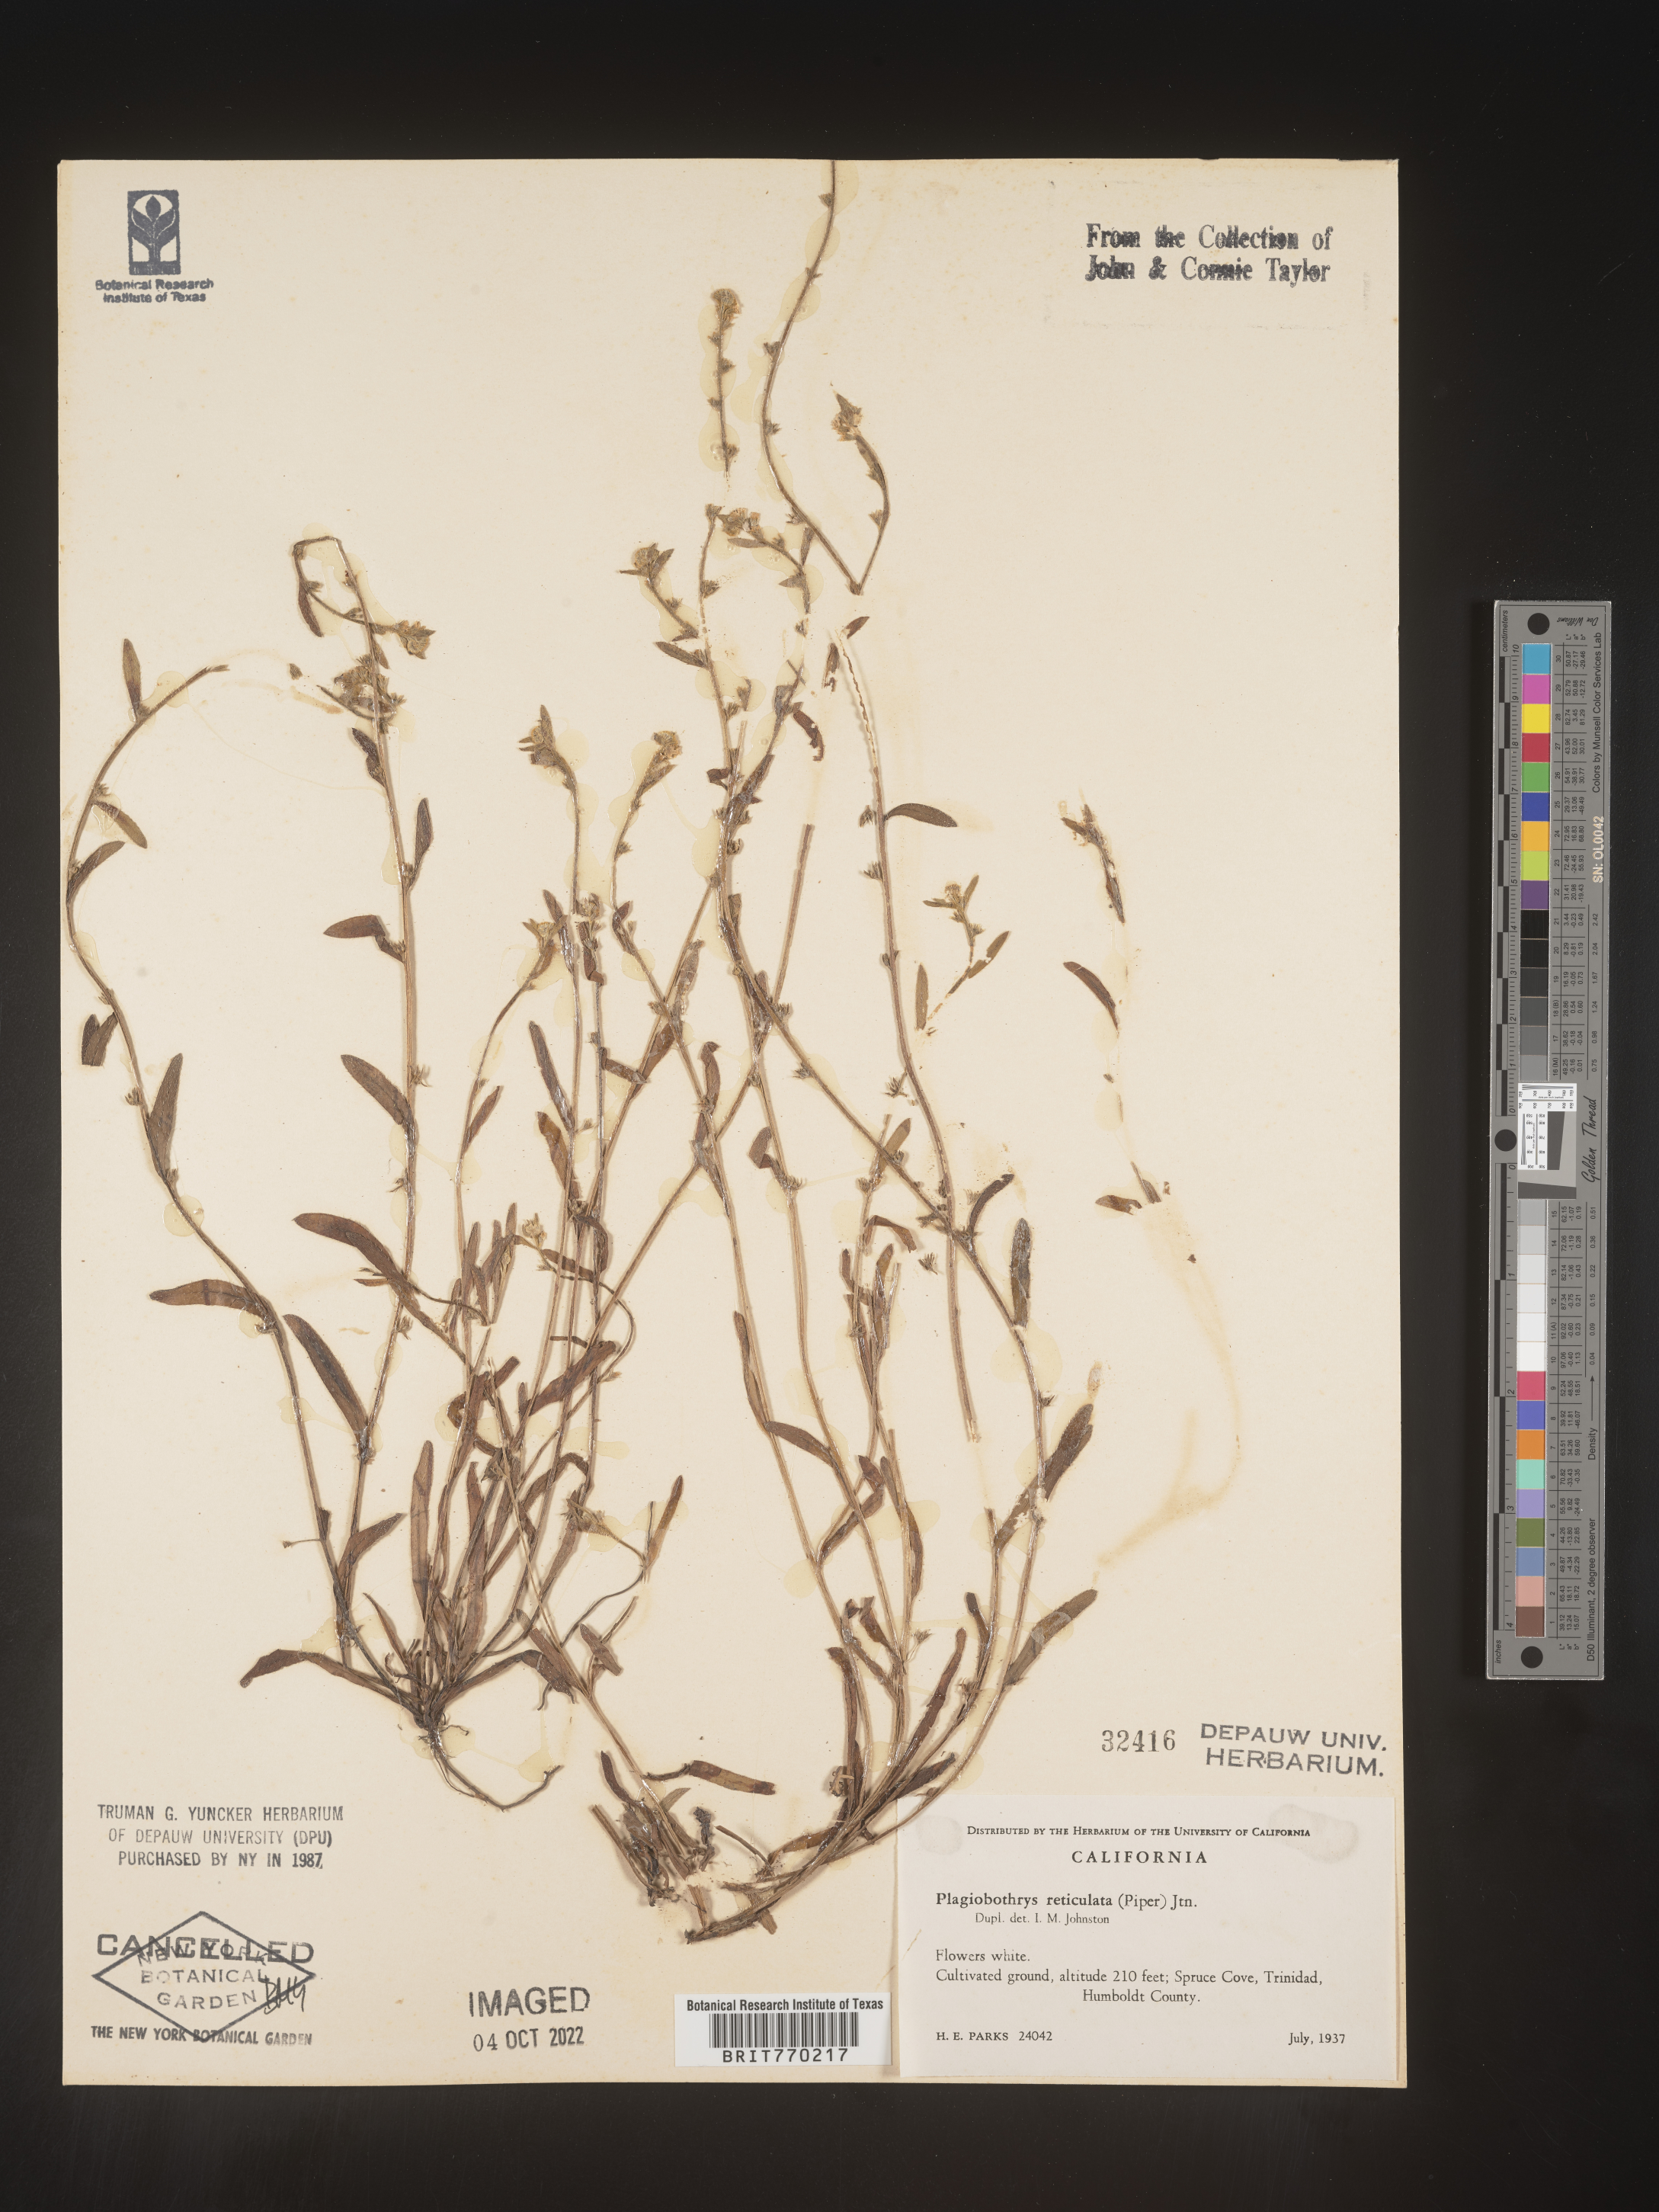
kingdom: Plantae
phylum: Tracheophyta
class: Magnoliopsida
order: Boraginales
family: Boraginaceae
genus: Plagiobothrys
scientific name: Plagiobothrys
